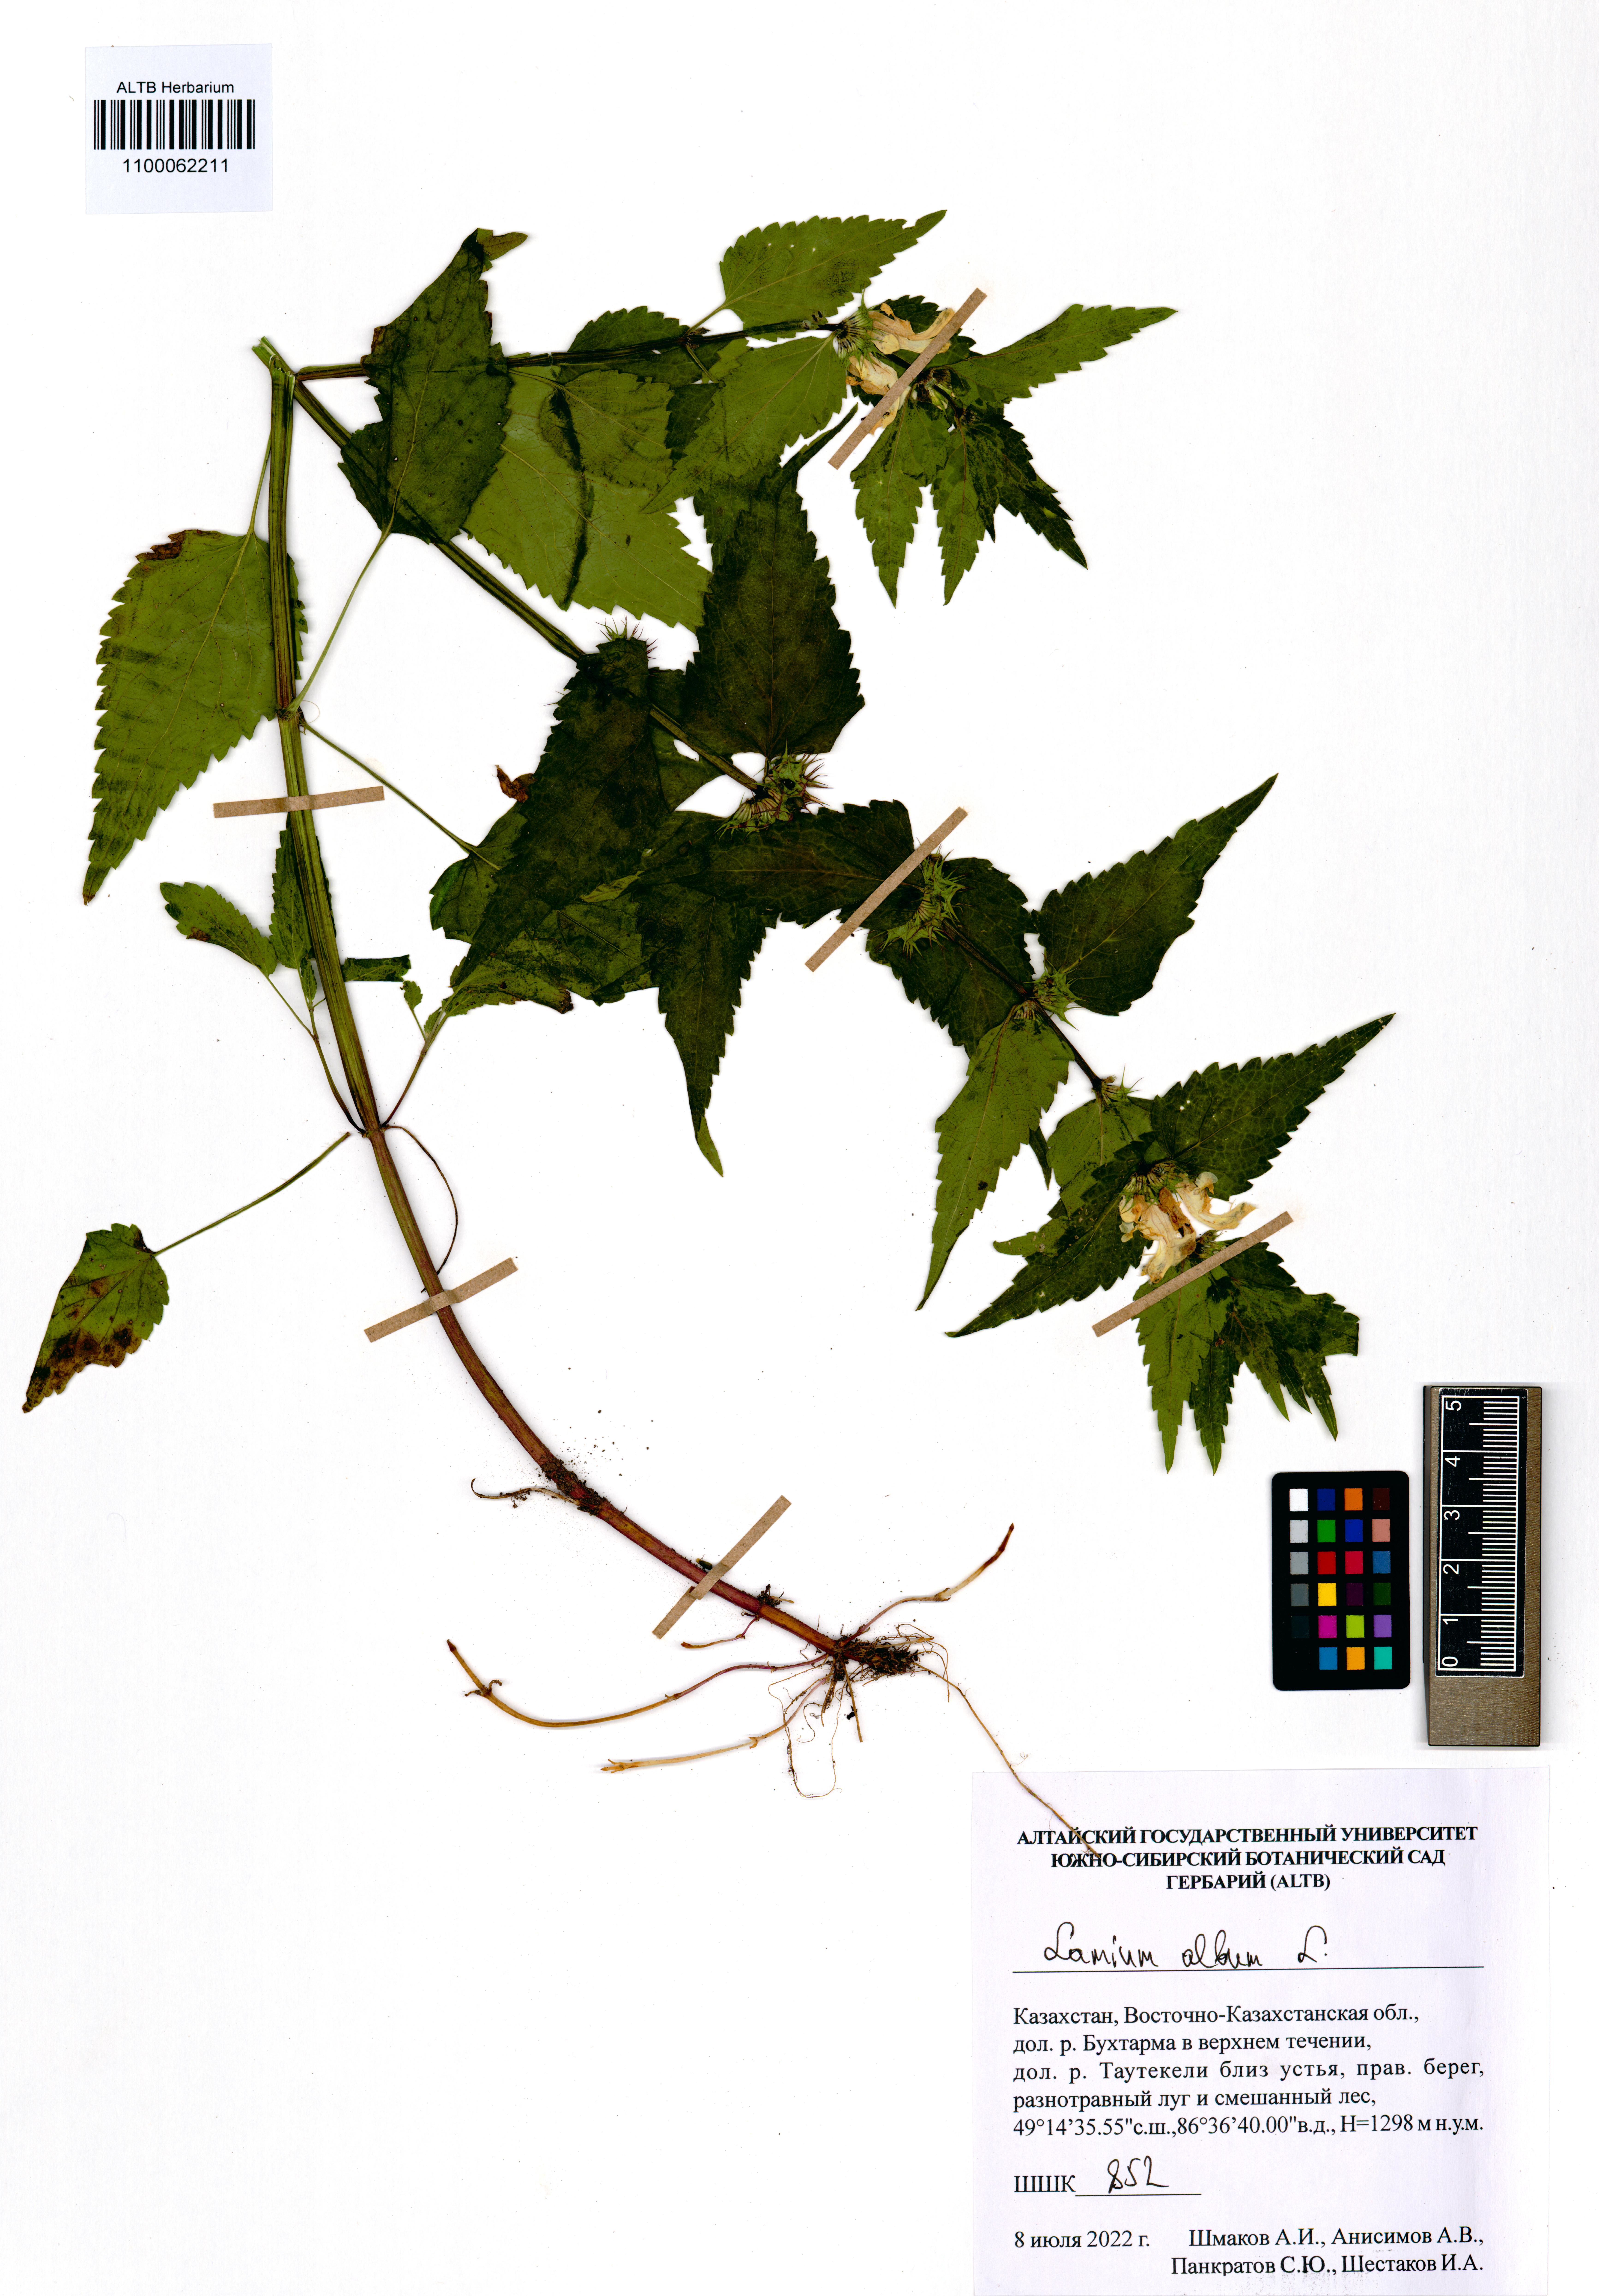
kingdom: Plantae
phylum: Tracheophyta
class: Magnoliopsida
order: Lamiales
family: Lamiaceae
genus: Lamium
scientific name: Lamium album
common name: White dead-nettle
